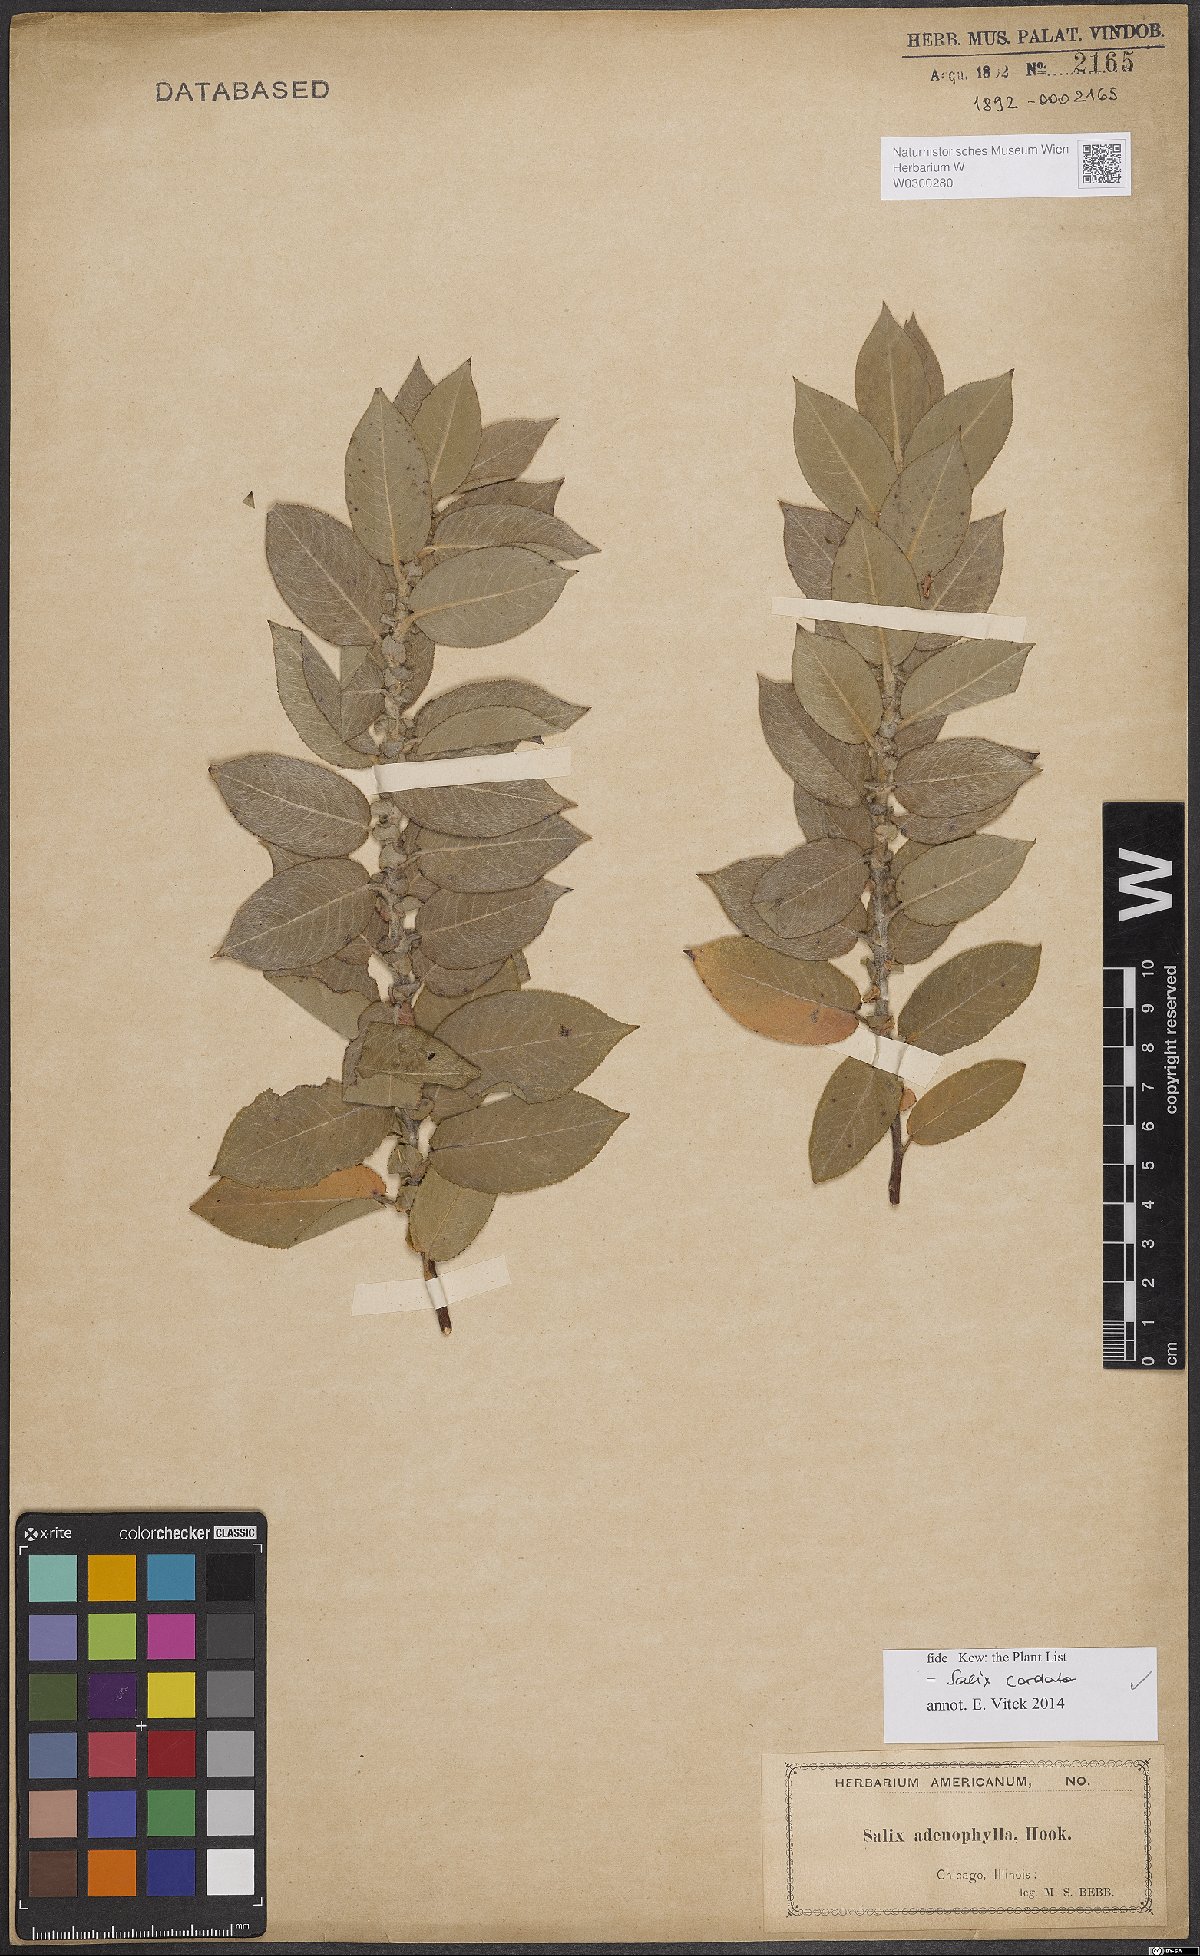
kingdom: Plantae
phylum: Tracheophyta
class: Magnoliopsida
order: Malpighiales
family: Salicaceae
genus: Salix
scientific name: Salix cordata
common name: Heart-leaf willow
